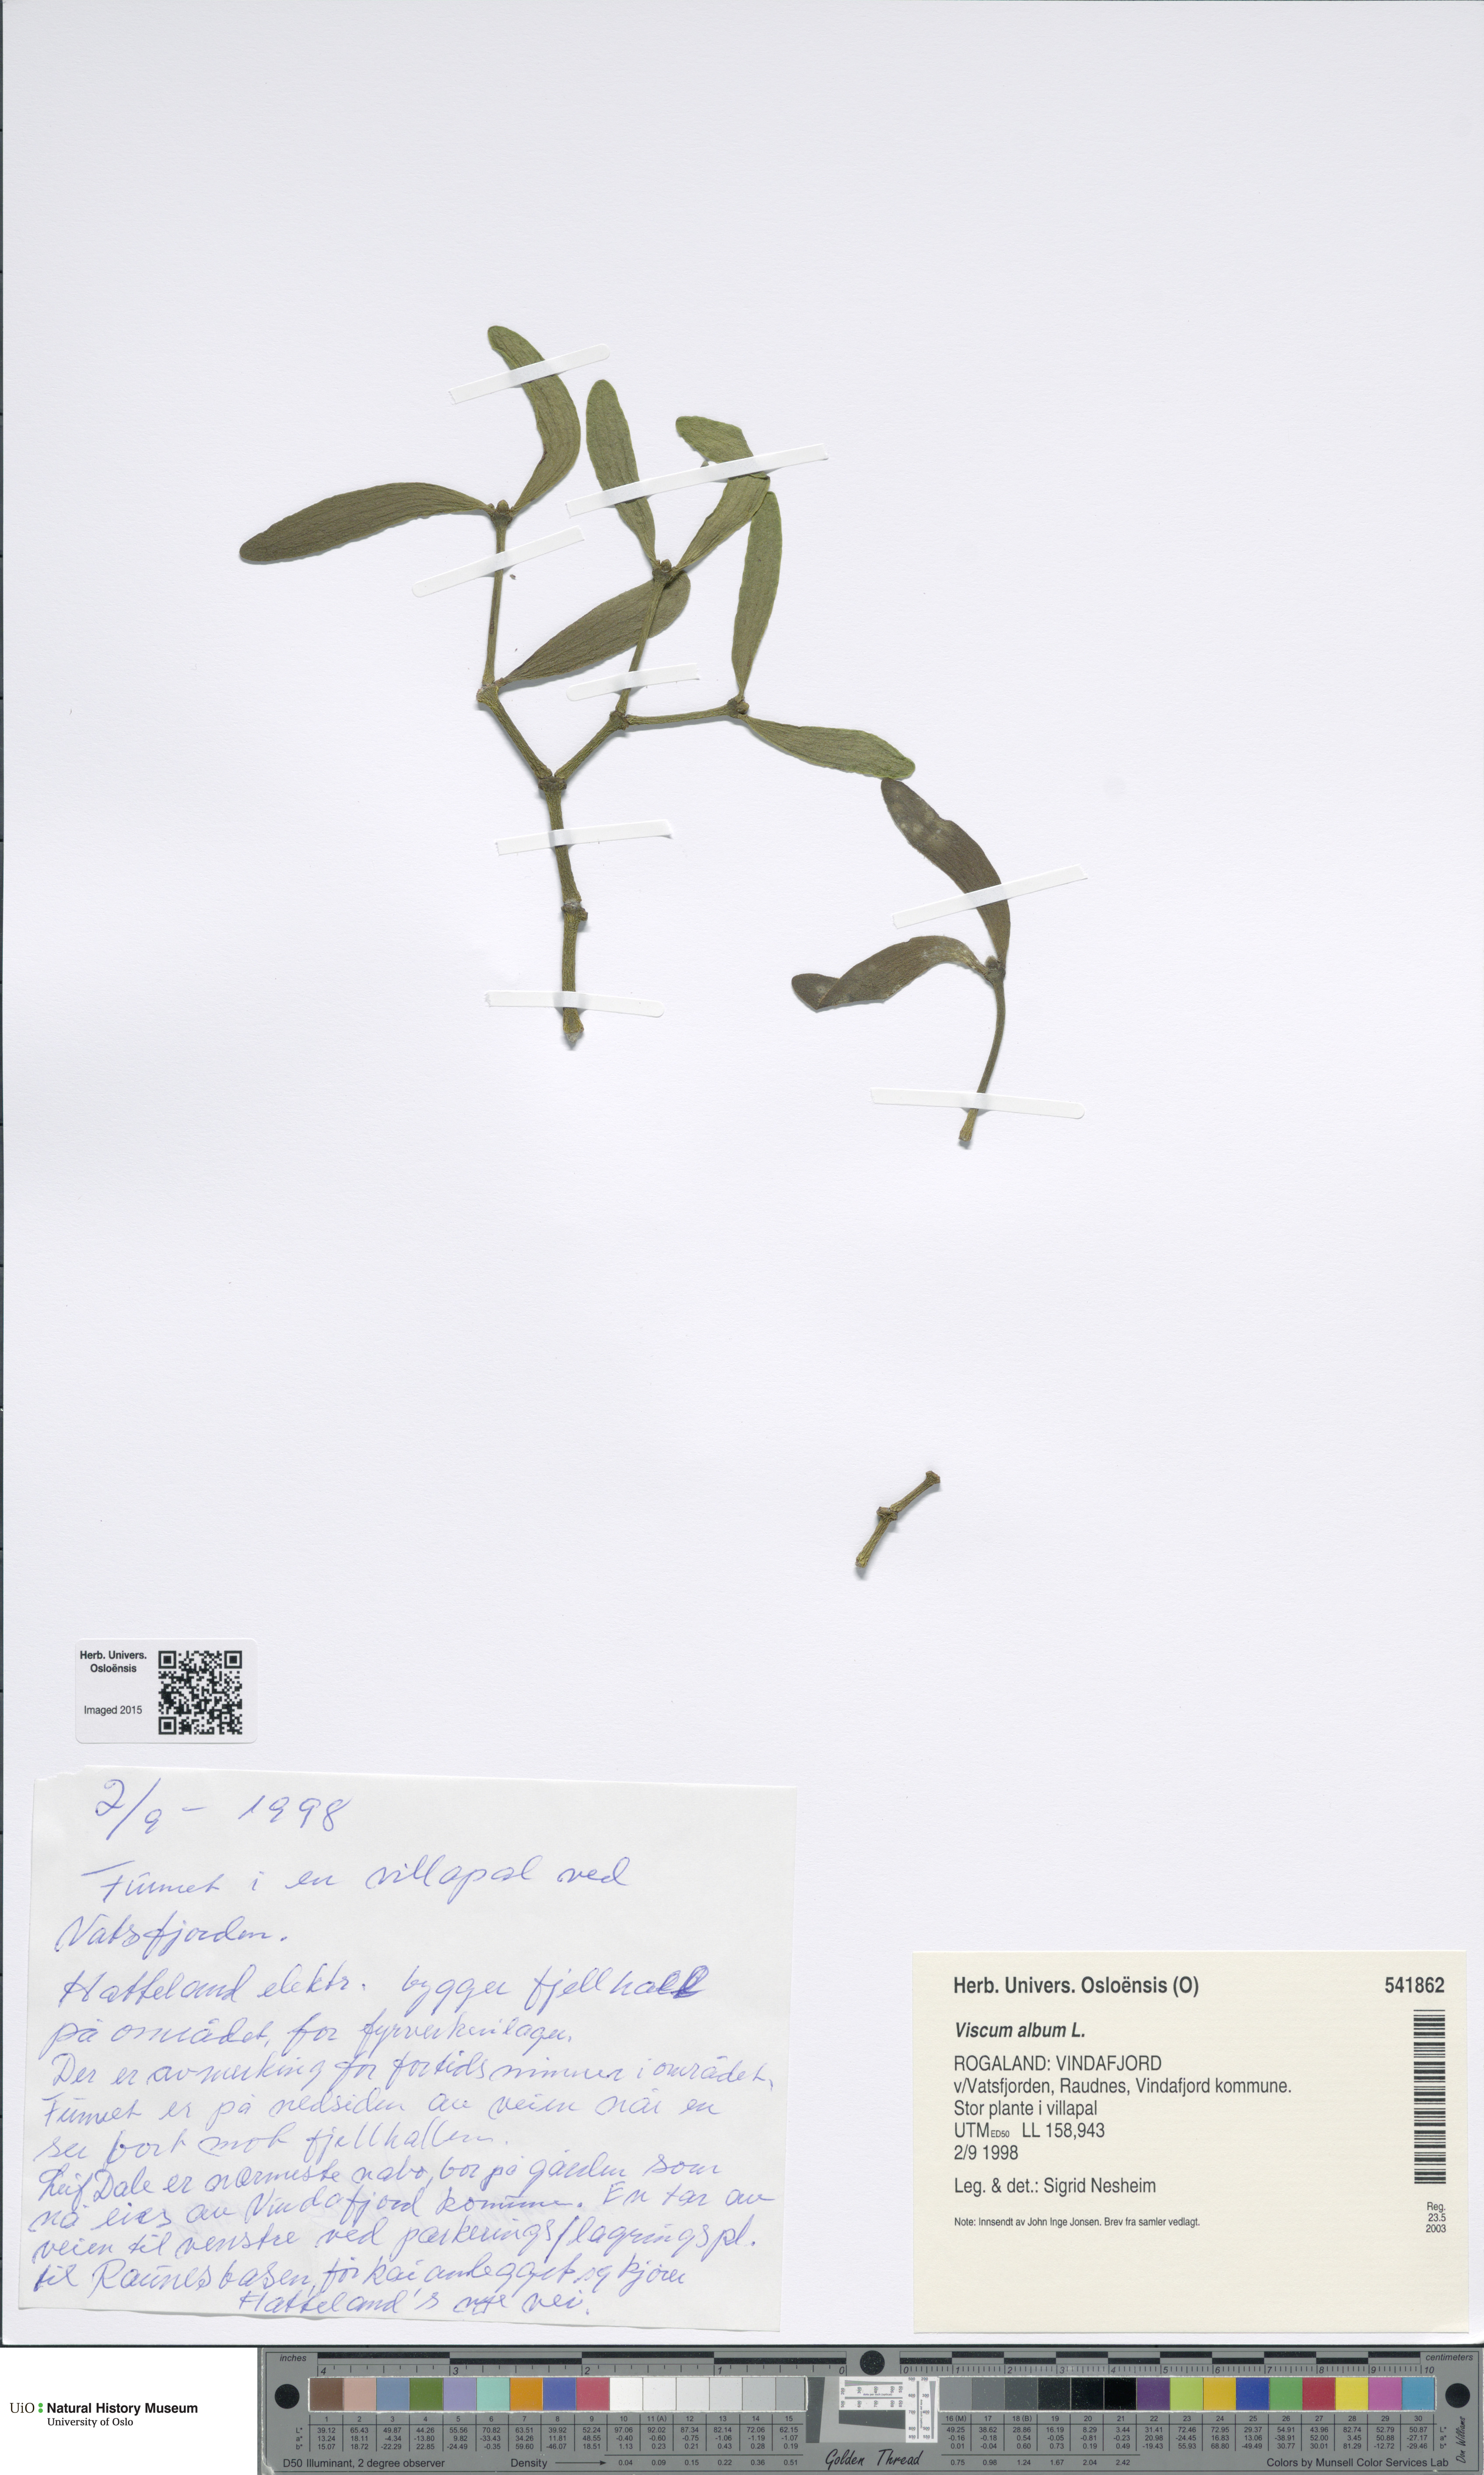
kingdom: Plantae
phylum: Tracheophyta
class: Magnoliopsida
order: Santalales
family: Viscaceae
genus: Viscum
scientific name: Viscum album
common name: Mistletoe
